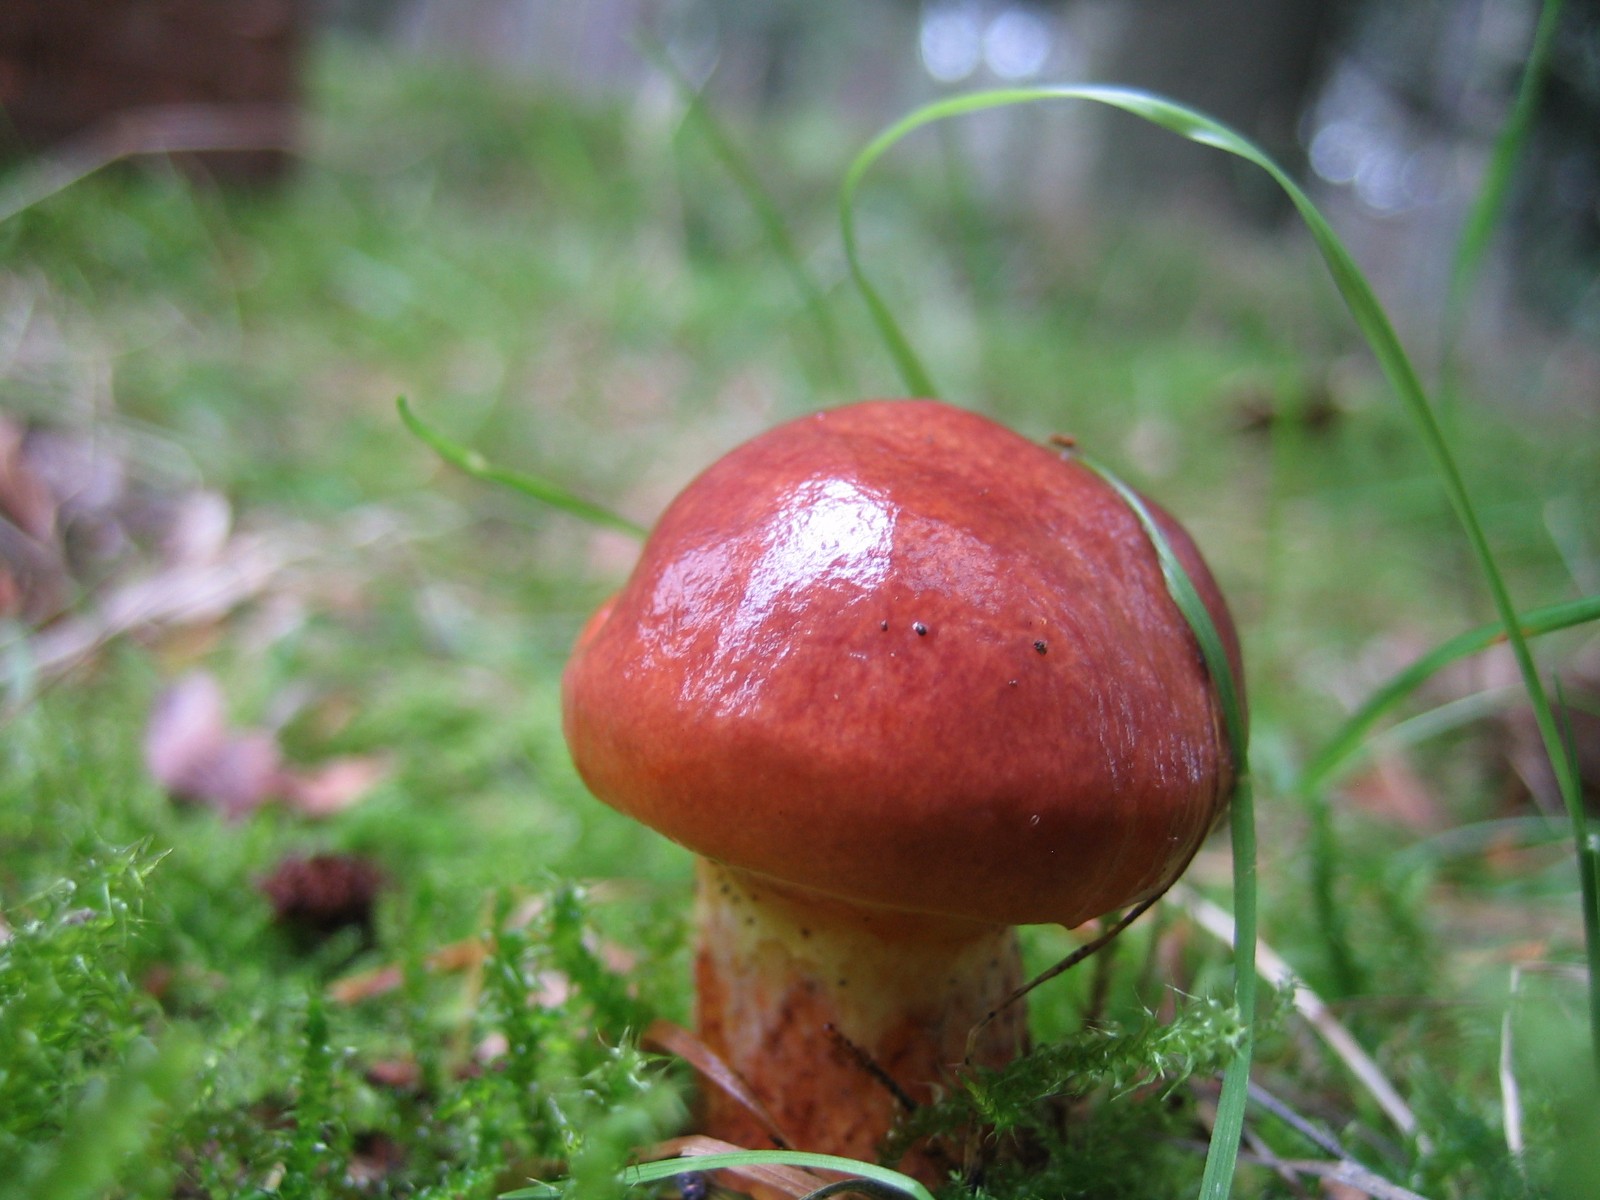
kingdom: Fungi
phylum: Basidiomycota
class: Agaricomycetes
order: Boletales
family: Suillaceae
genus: Suillus
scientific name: Suillus grevillei
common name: Larch bolete
